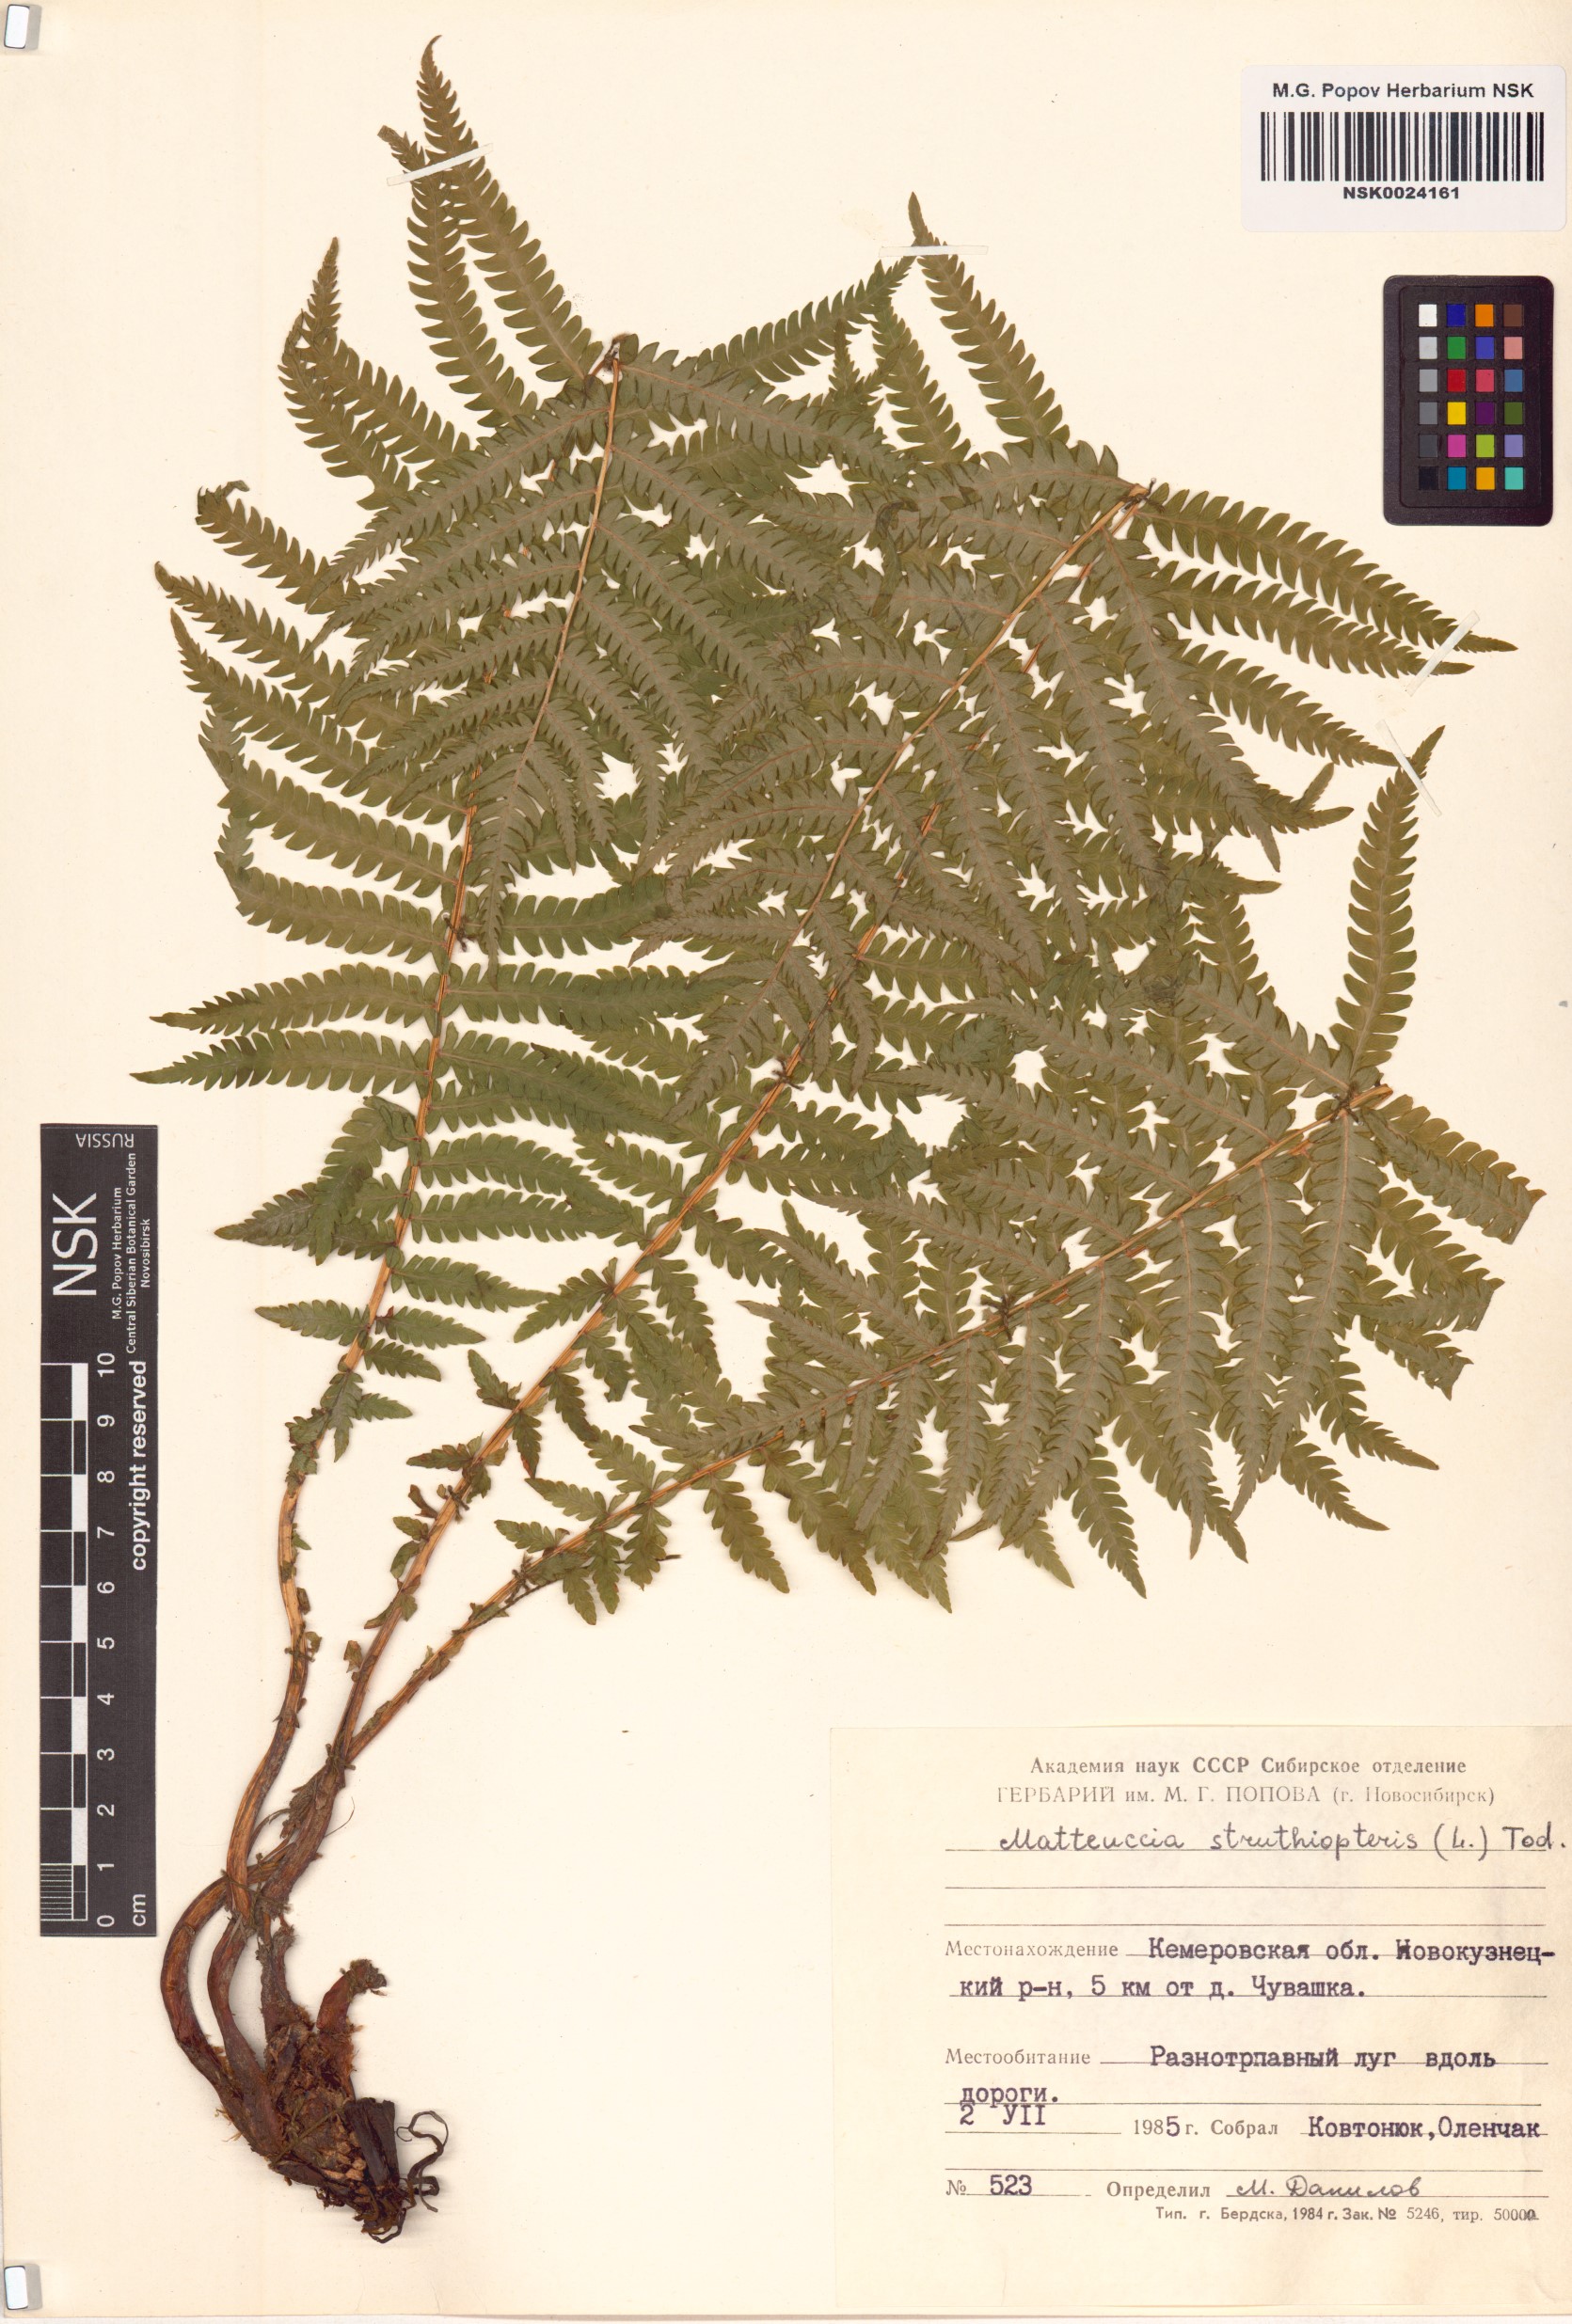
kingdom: Plantae
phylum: Tracheophyta
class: Polypodiopsida
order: Polypodiales
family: Onocleaceae
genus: Matteuccia
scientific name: Matteuccia struthiopteris
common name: Ostrich fern
